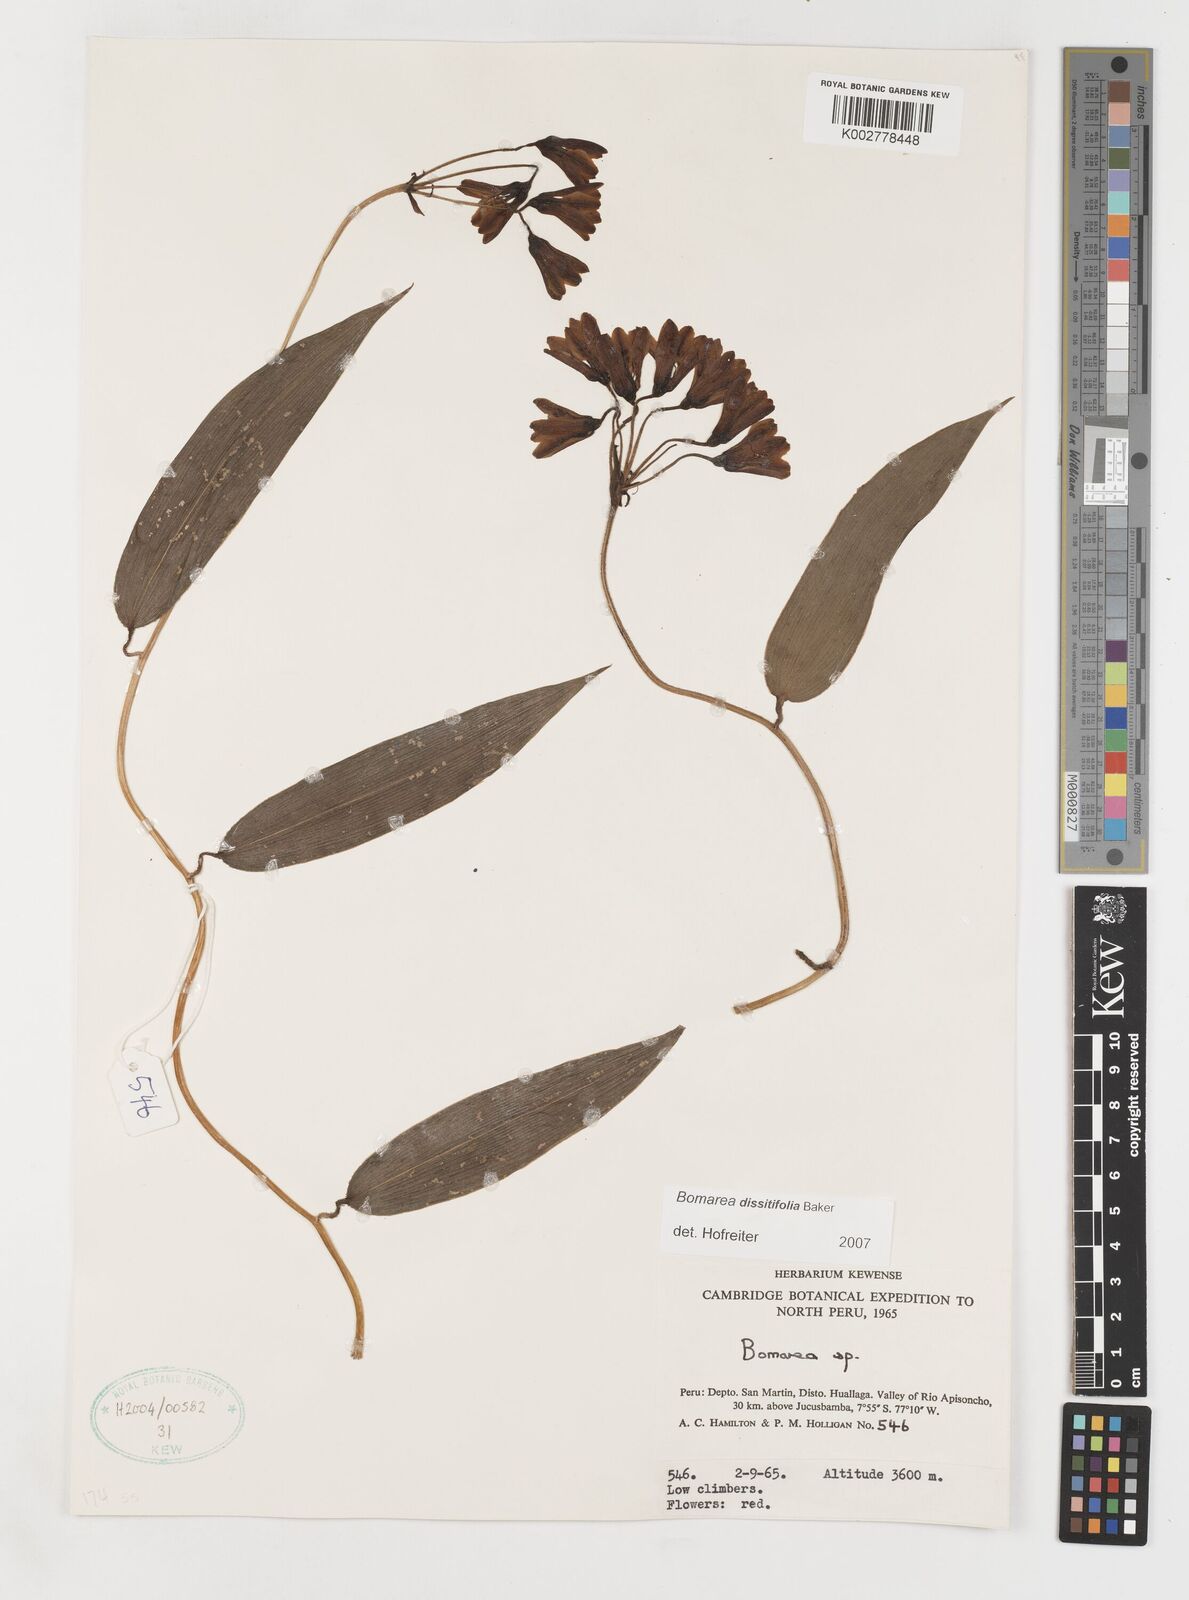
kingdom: Plantae
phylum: Tracheophyta
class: Liliopsida
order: Liliales
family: Alstroemeriaceae
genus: Bomarea
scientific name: Bomarea dissitifolia
